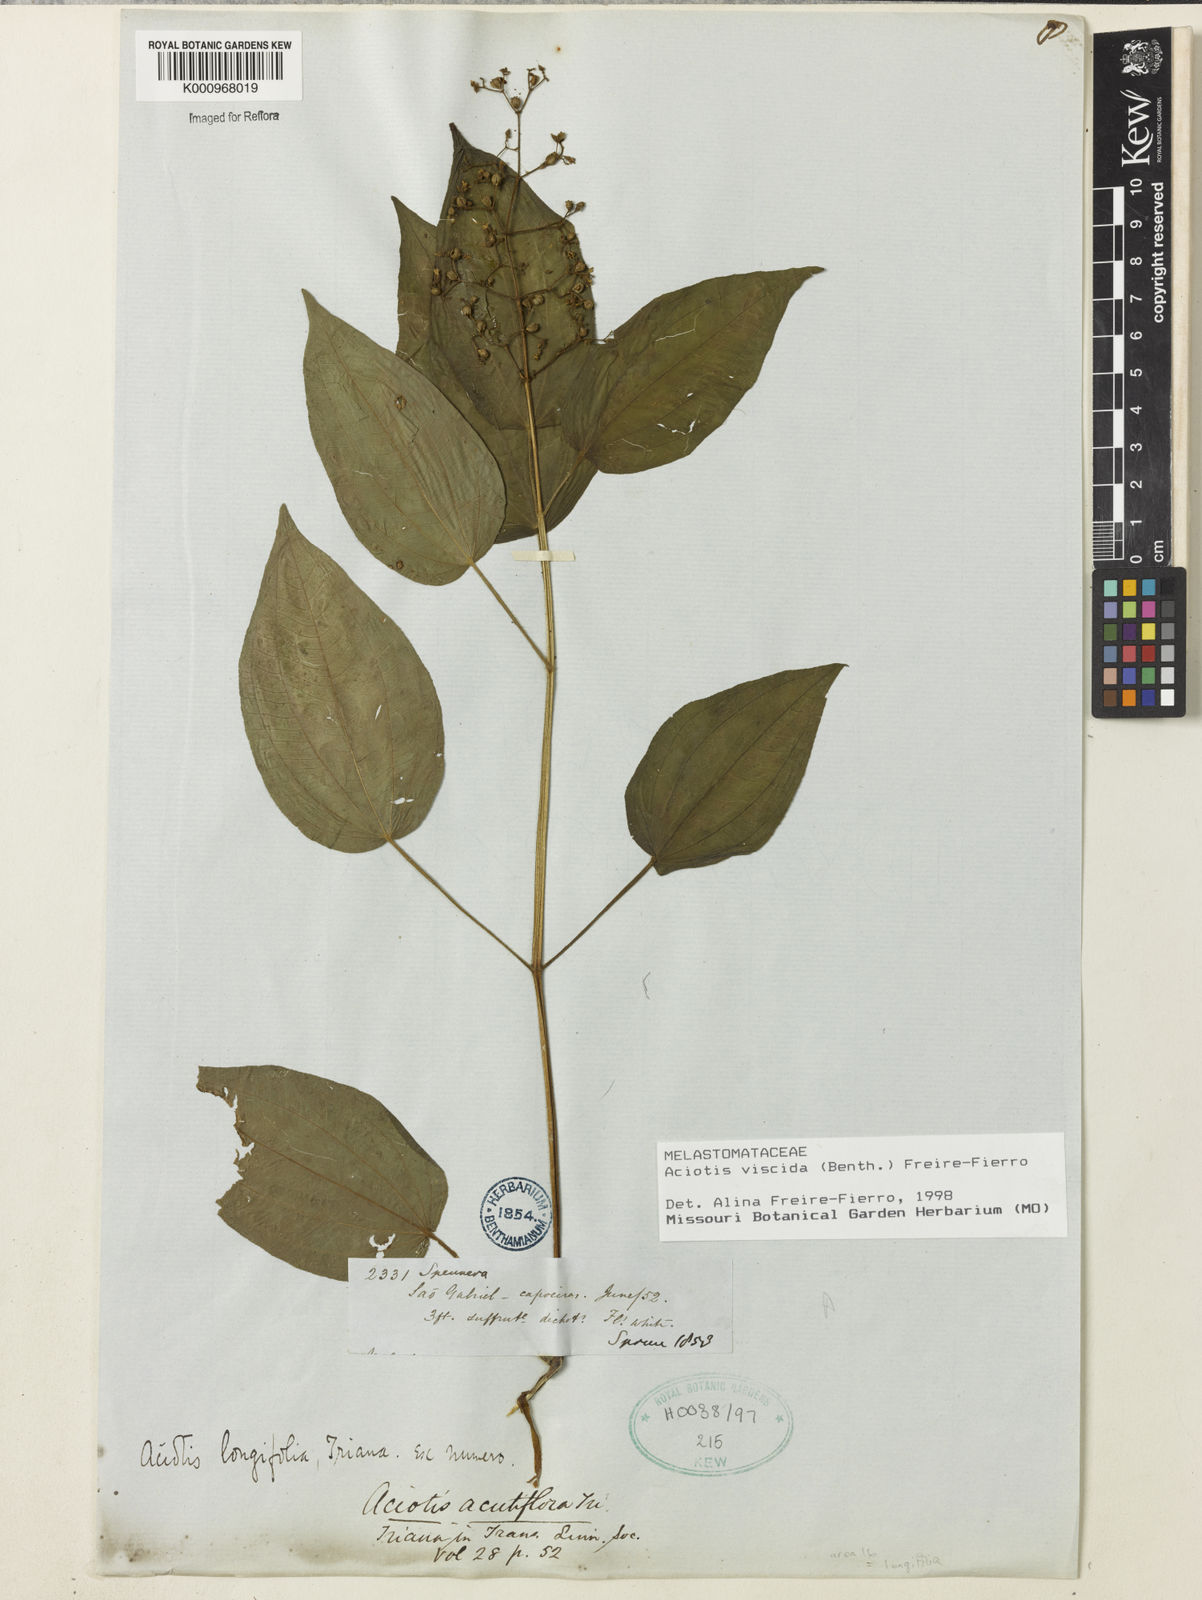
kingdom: Plantae
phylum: Tracheophyta
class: Magnoliopsida
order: Myrtales
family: Melastomataceae
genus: Aciotis
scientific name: Aciotis viscida
